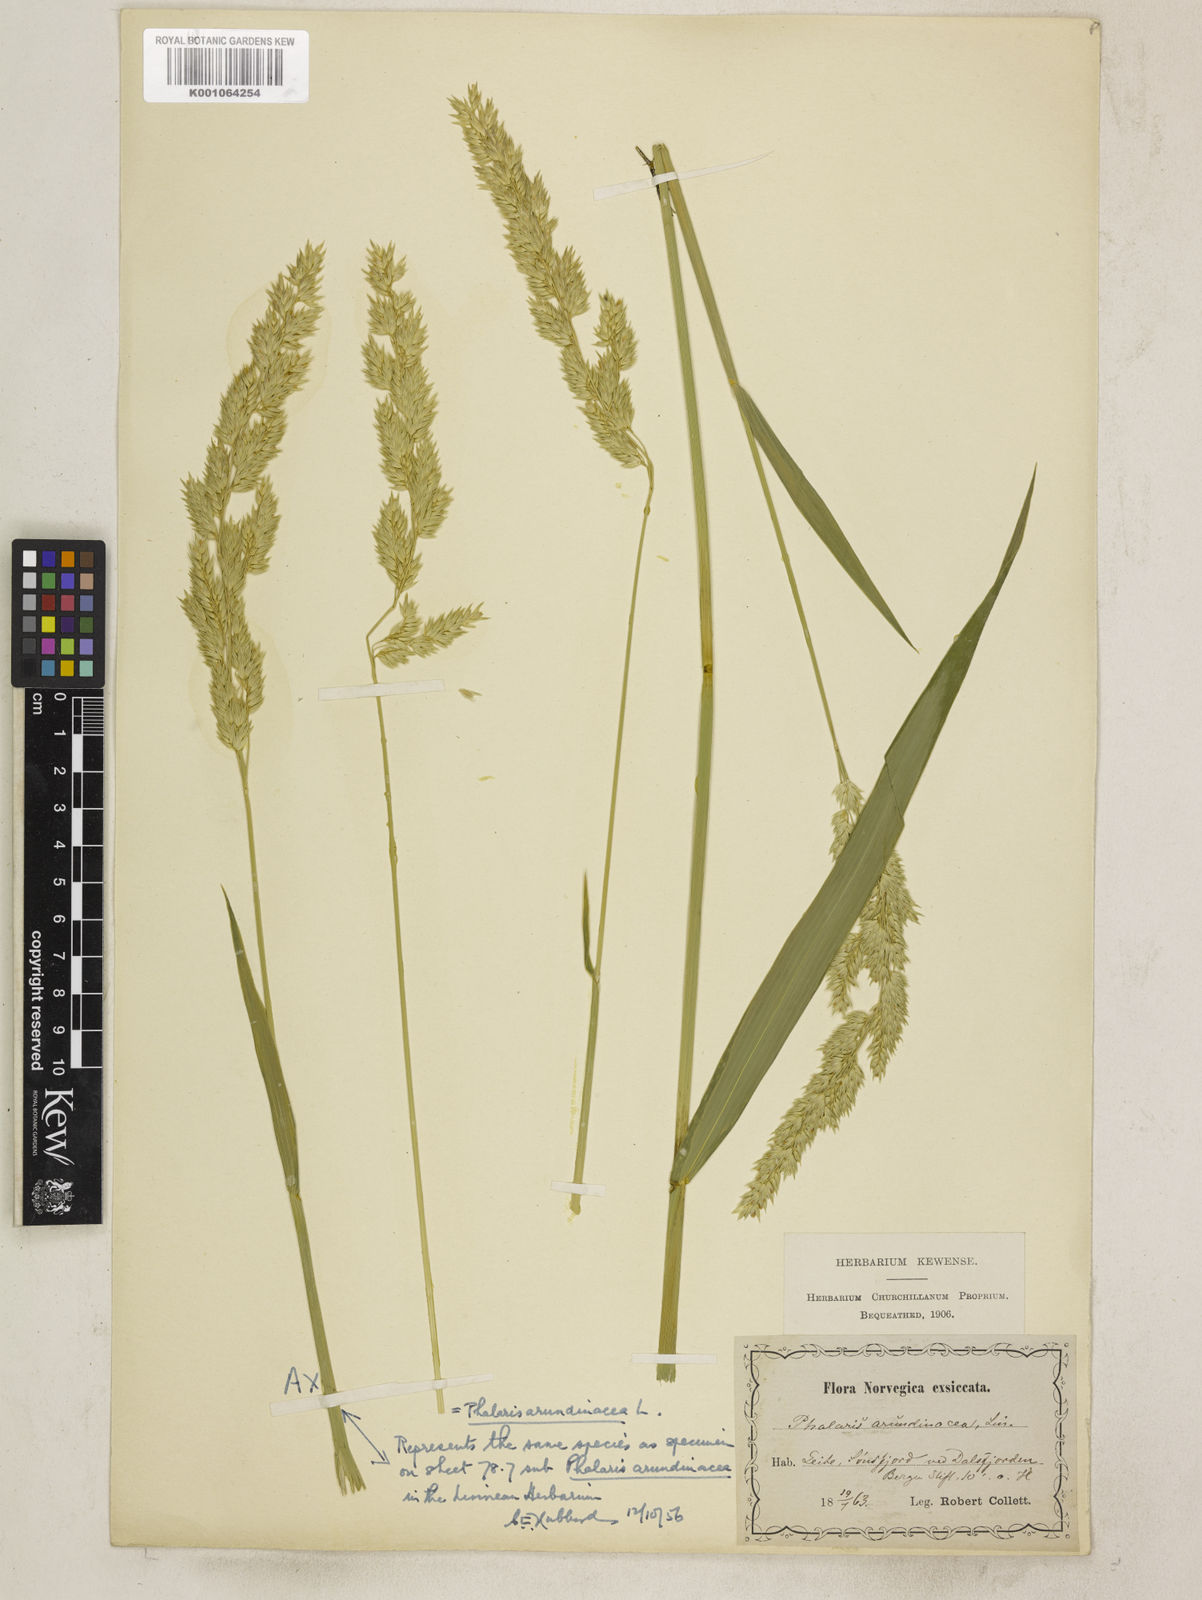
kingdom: Plantae
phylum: Tracheophyta
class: Liliopsida
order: Poales
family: Poaceae
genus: Phalaris
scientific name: Phalaris arundinacea
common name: Reed canary-grass
